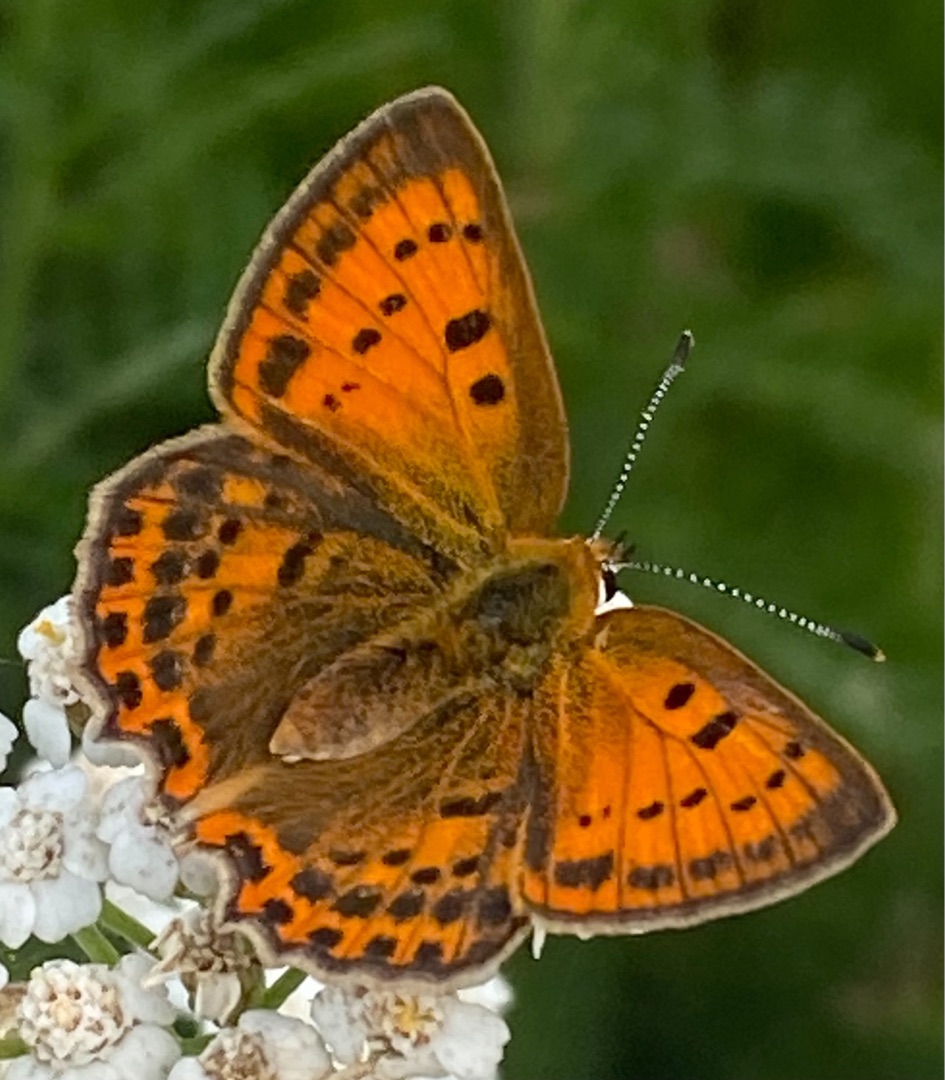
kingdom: Animalia
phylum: Arthropoda
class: Insecta
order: Lepidoptera
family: Lycaenidae
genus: Lycaena
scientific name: Lycaena virgaureae
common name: Dukatsommerfugl
